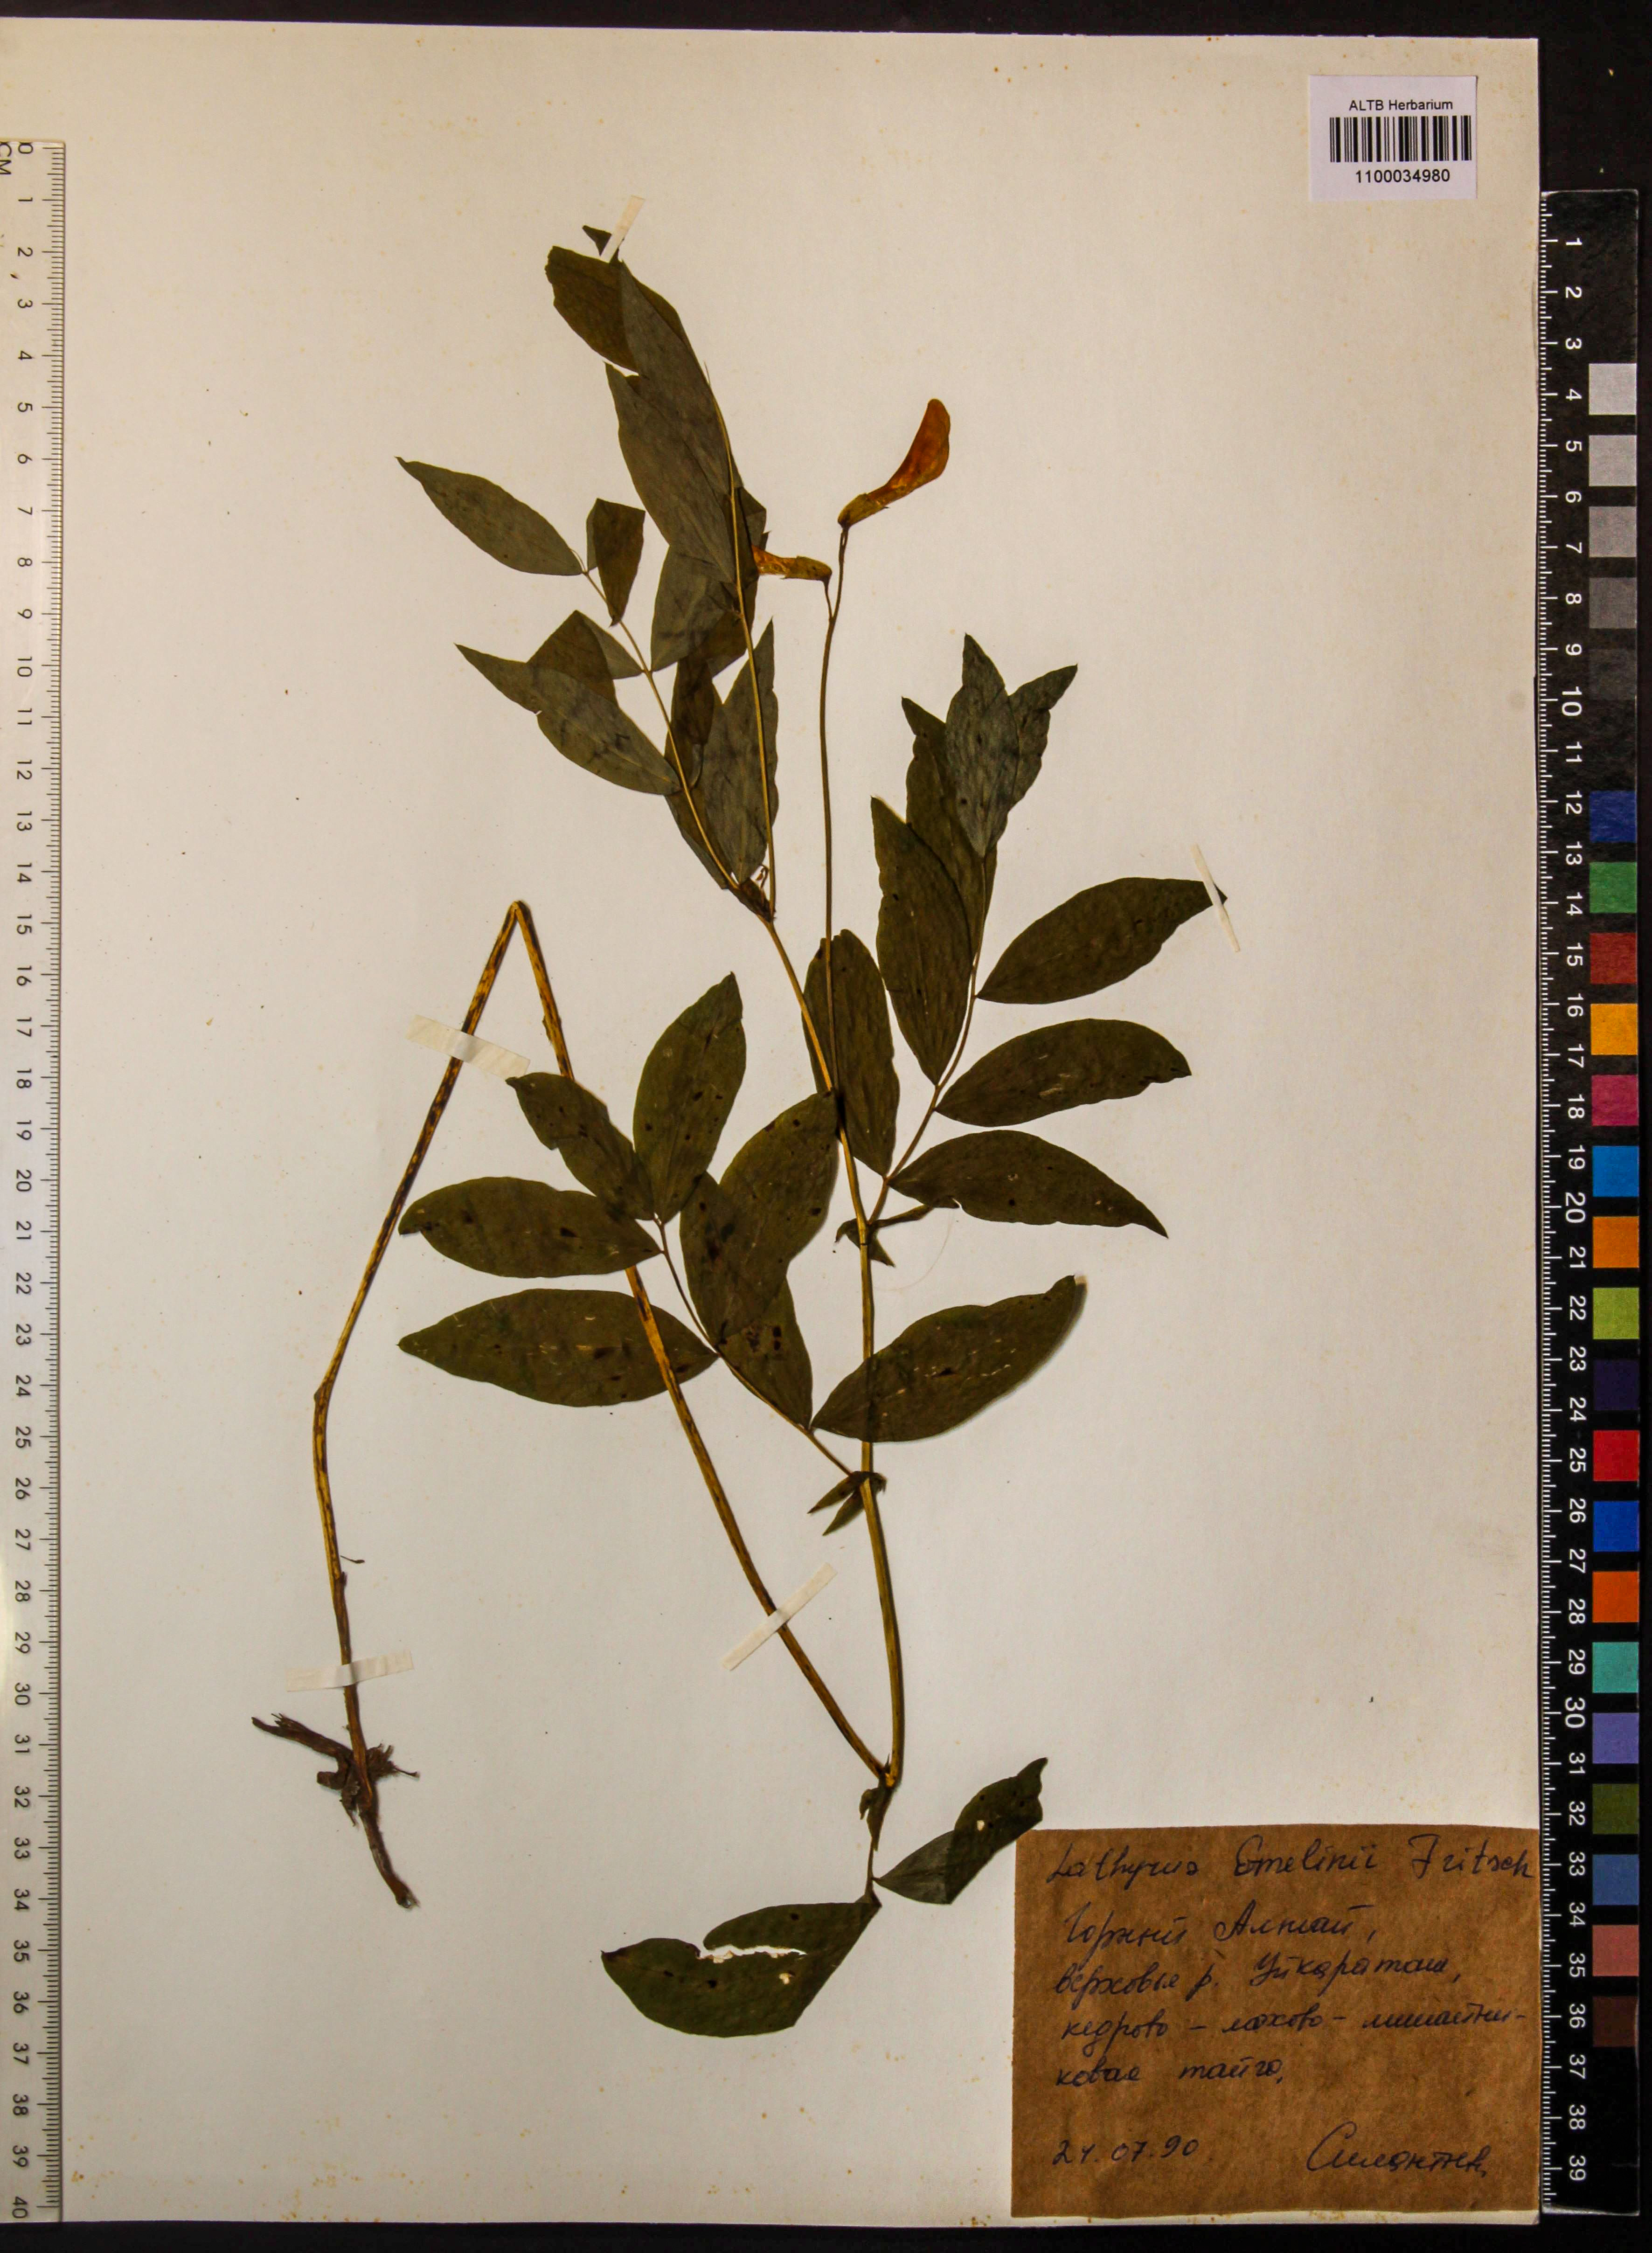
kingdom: Plantae
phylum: Tracheophyta
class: Magnoliopsida
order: Fabales
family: Fabaceae
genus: Lathyrus
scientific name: Lathyrus gmelinii
